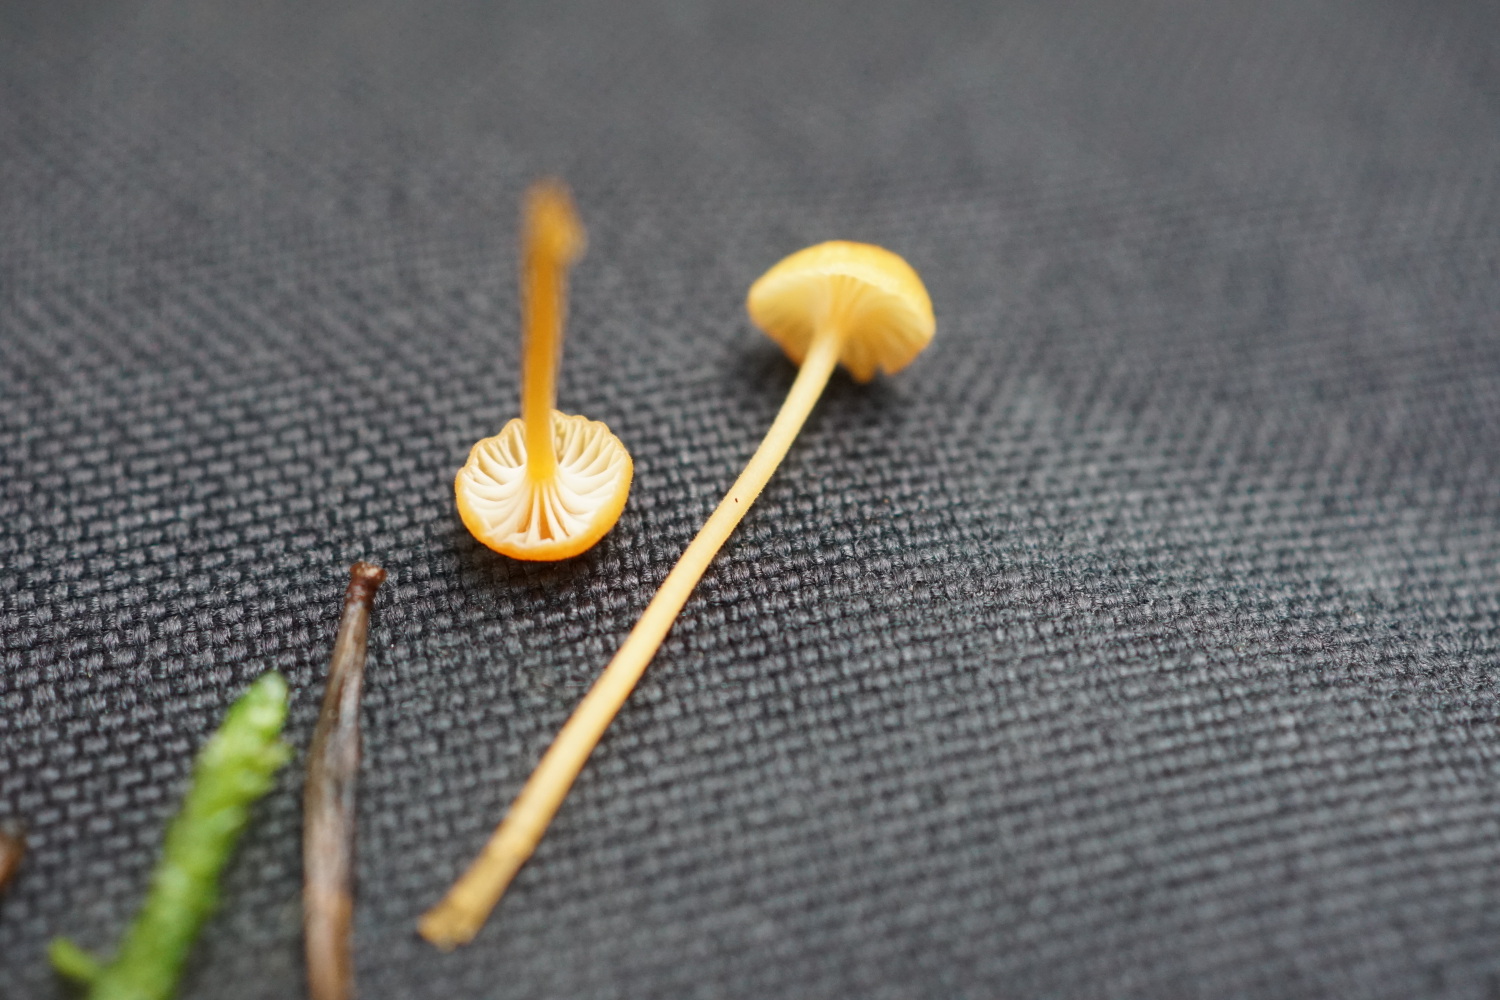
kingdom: Fungi
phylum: Basidiomycota
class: Agaricomycetes
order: Hymenochaetales
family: Rickenellaceae
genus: Rickenella
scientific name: Rickenella fibula
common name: orange mosnavlehat
